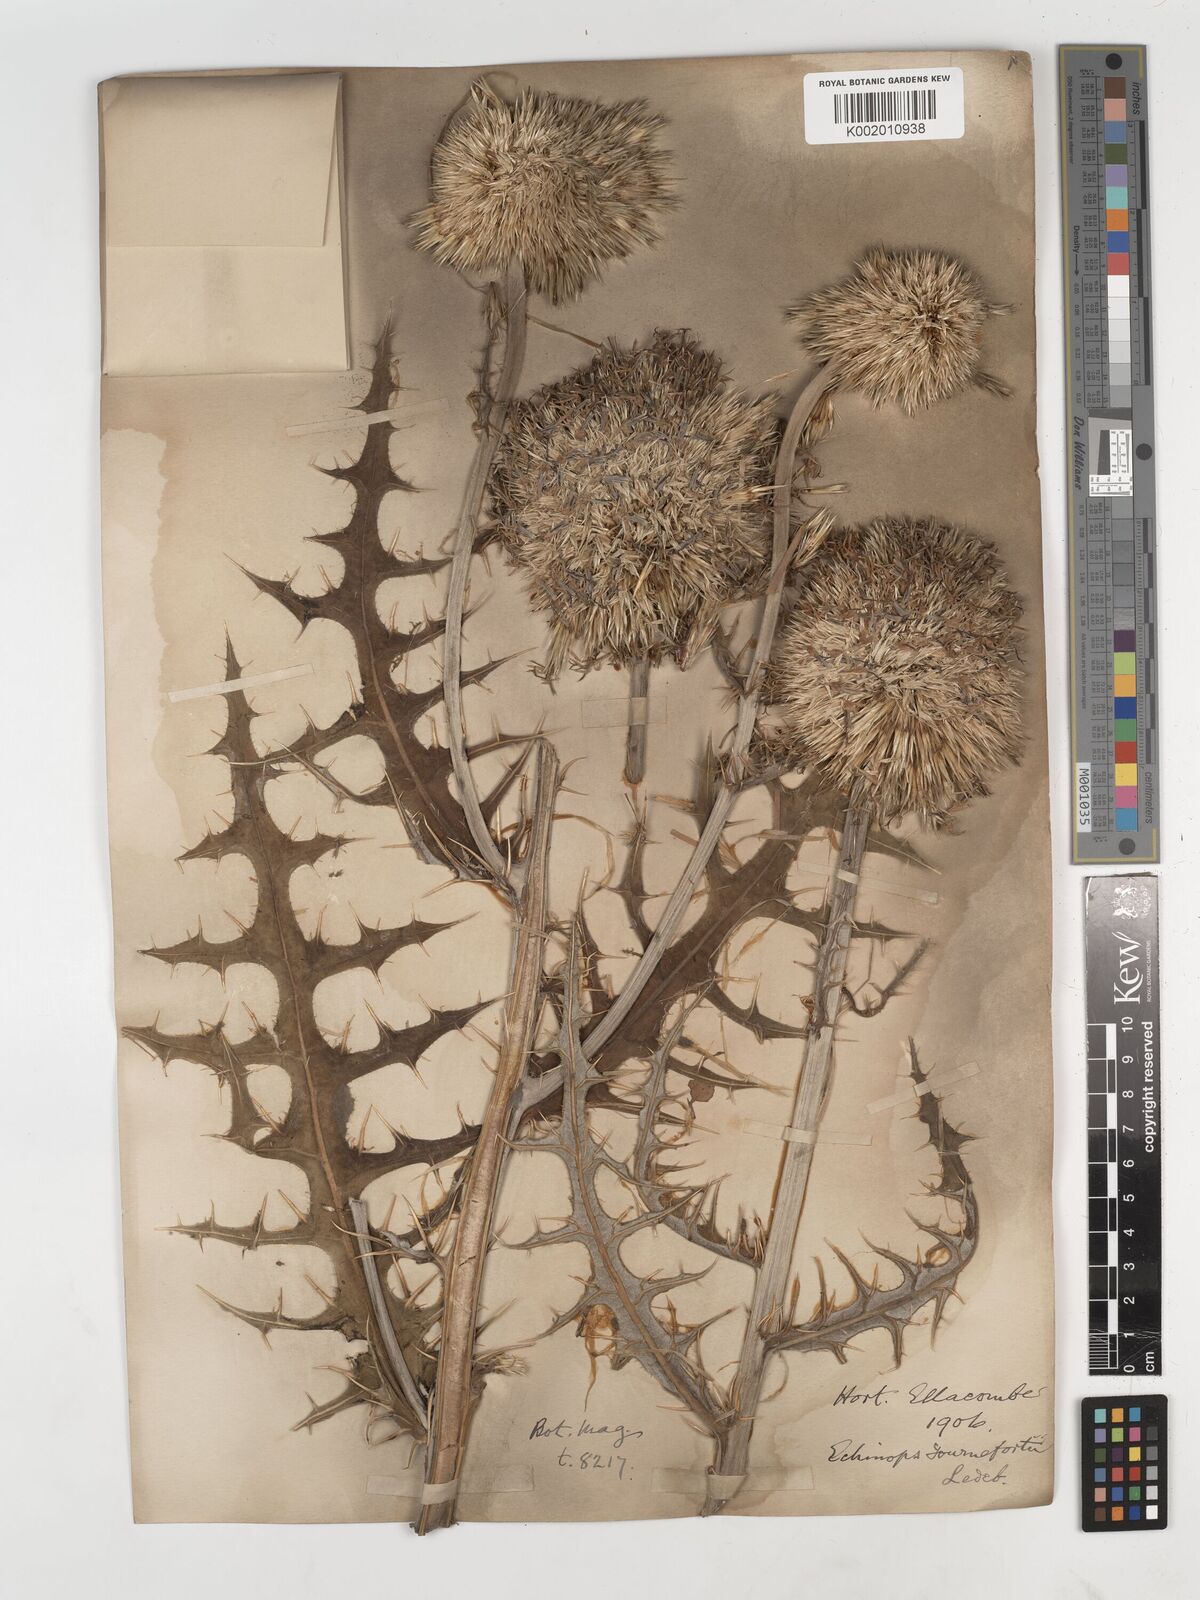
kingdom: Plantae
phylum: Tracheophyta
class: Magnoliopsida
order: Asterales
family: Asteraceae
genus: Echinops
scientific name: Echinops tournefortii
